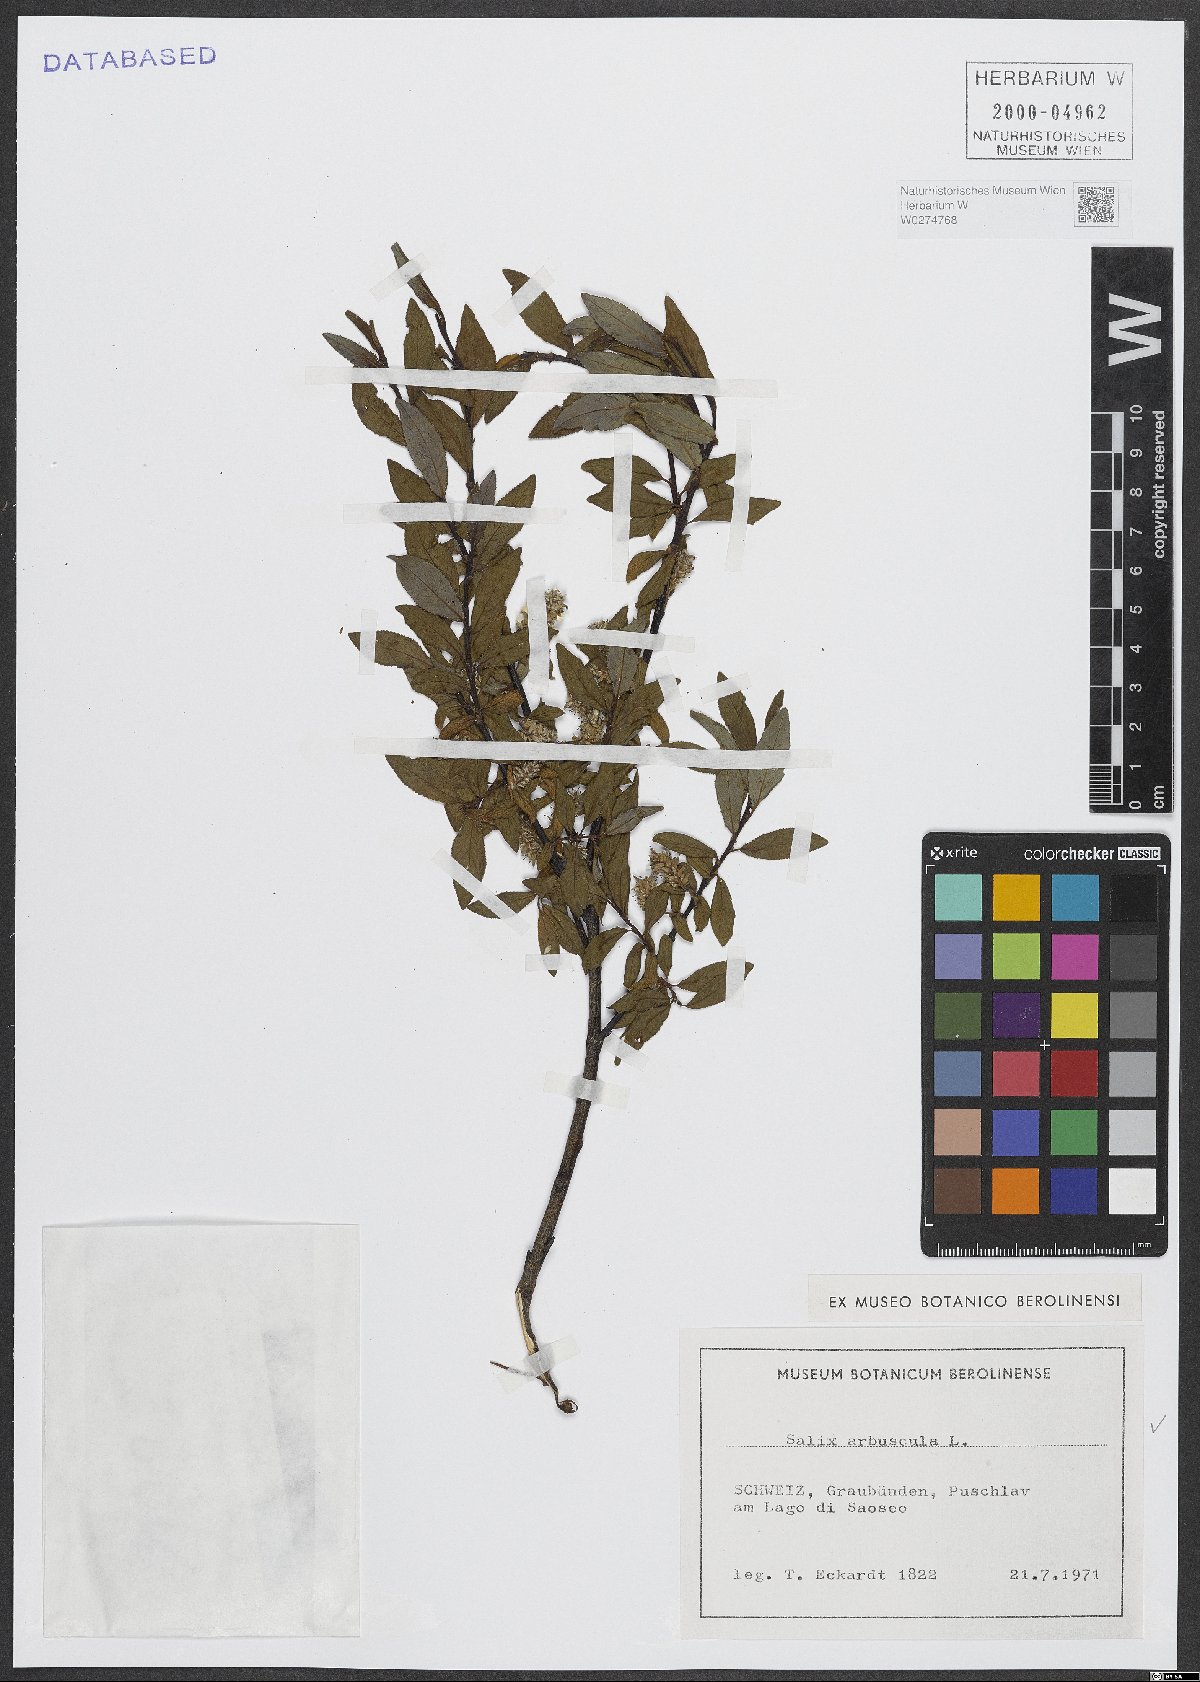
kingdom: Plantae
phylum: Tracheophyta
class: Magnoliopsida
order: Malpighiales
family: Salicaceae
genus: Salix
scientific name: Salix arbuscula
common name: Mountain willow
